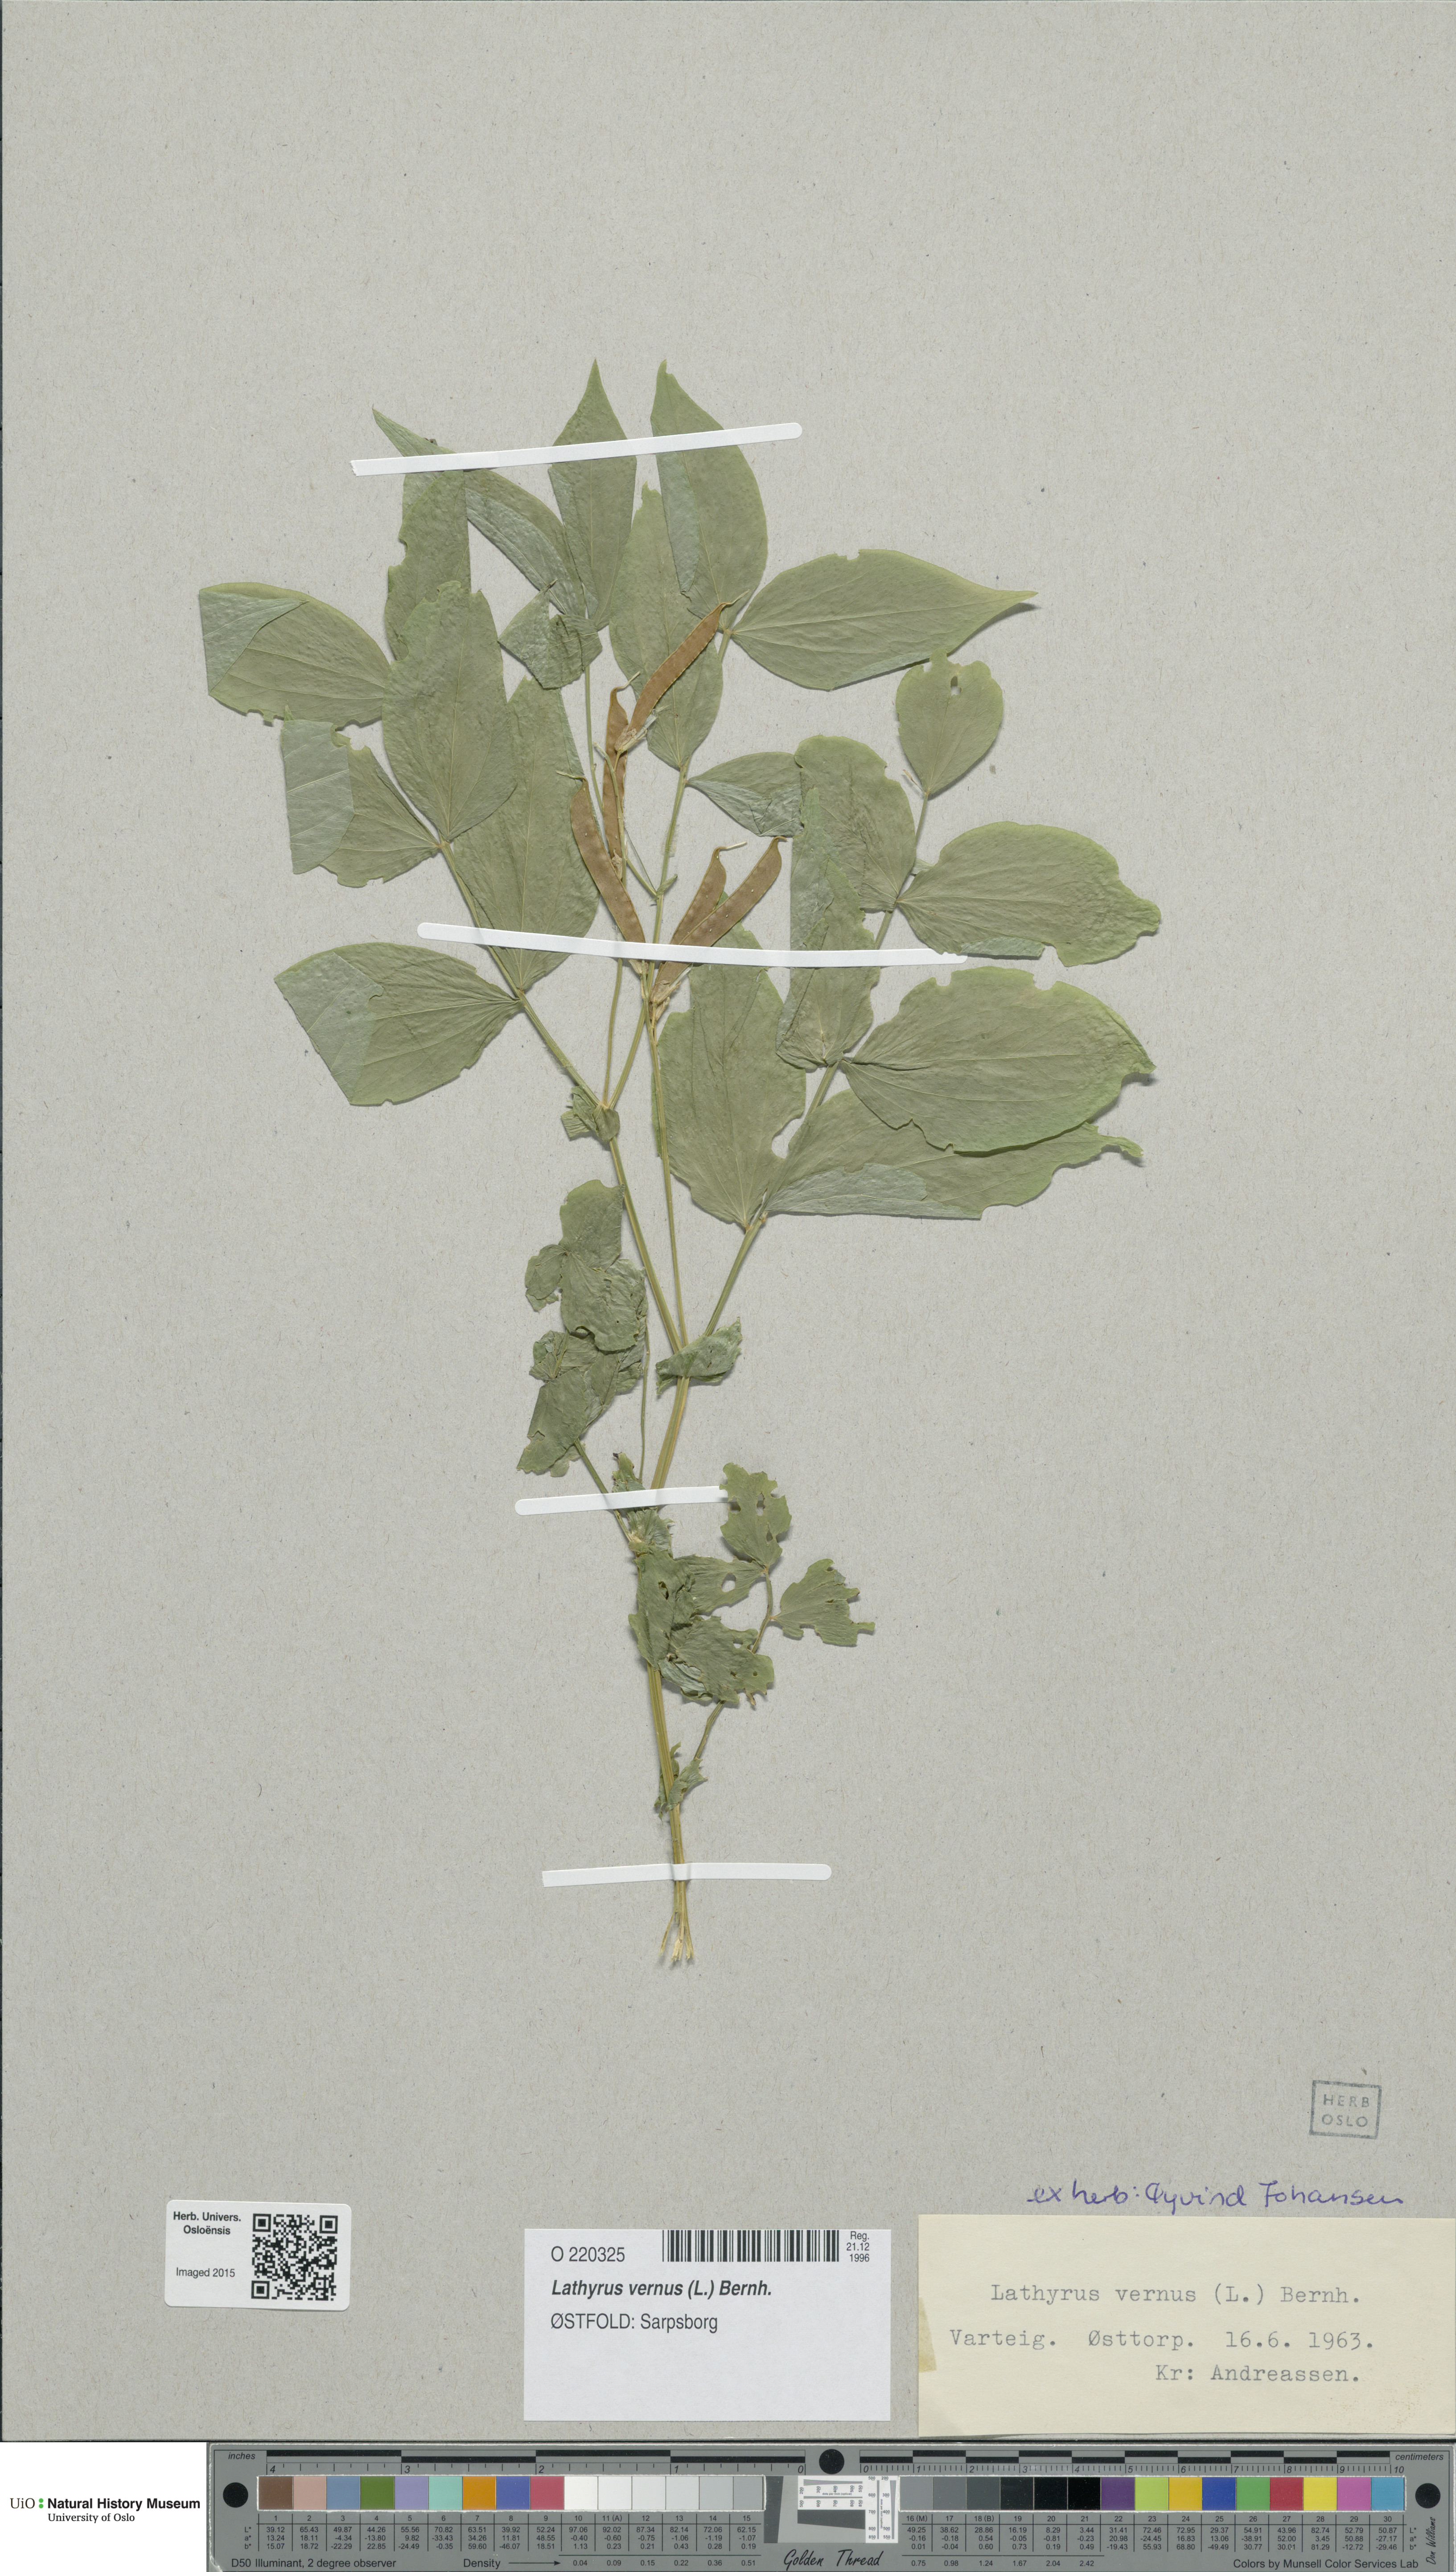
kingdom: Plantae
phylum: Tracheophyta
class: Magnoliopsida
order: Fabales
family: Fabaceae
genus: Lathyrus
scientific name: Lathyrus vernus
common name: Spring pea
